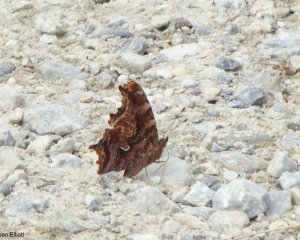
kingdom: Animalia
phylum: Arthropoda
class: Insecta
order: Lepidoptera
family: Nymphalidae
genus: Polygonia
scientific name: Polygonia comma
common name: Eastern Comma
